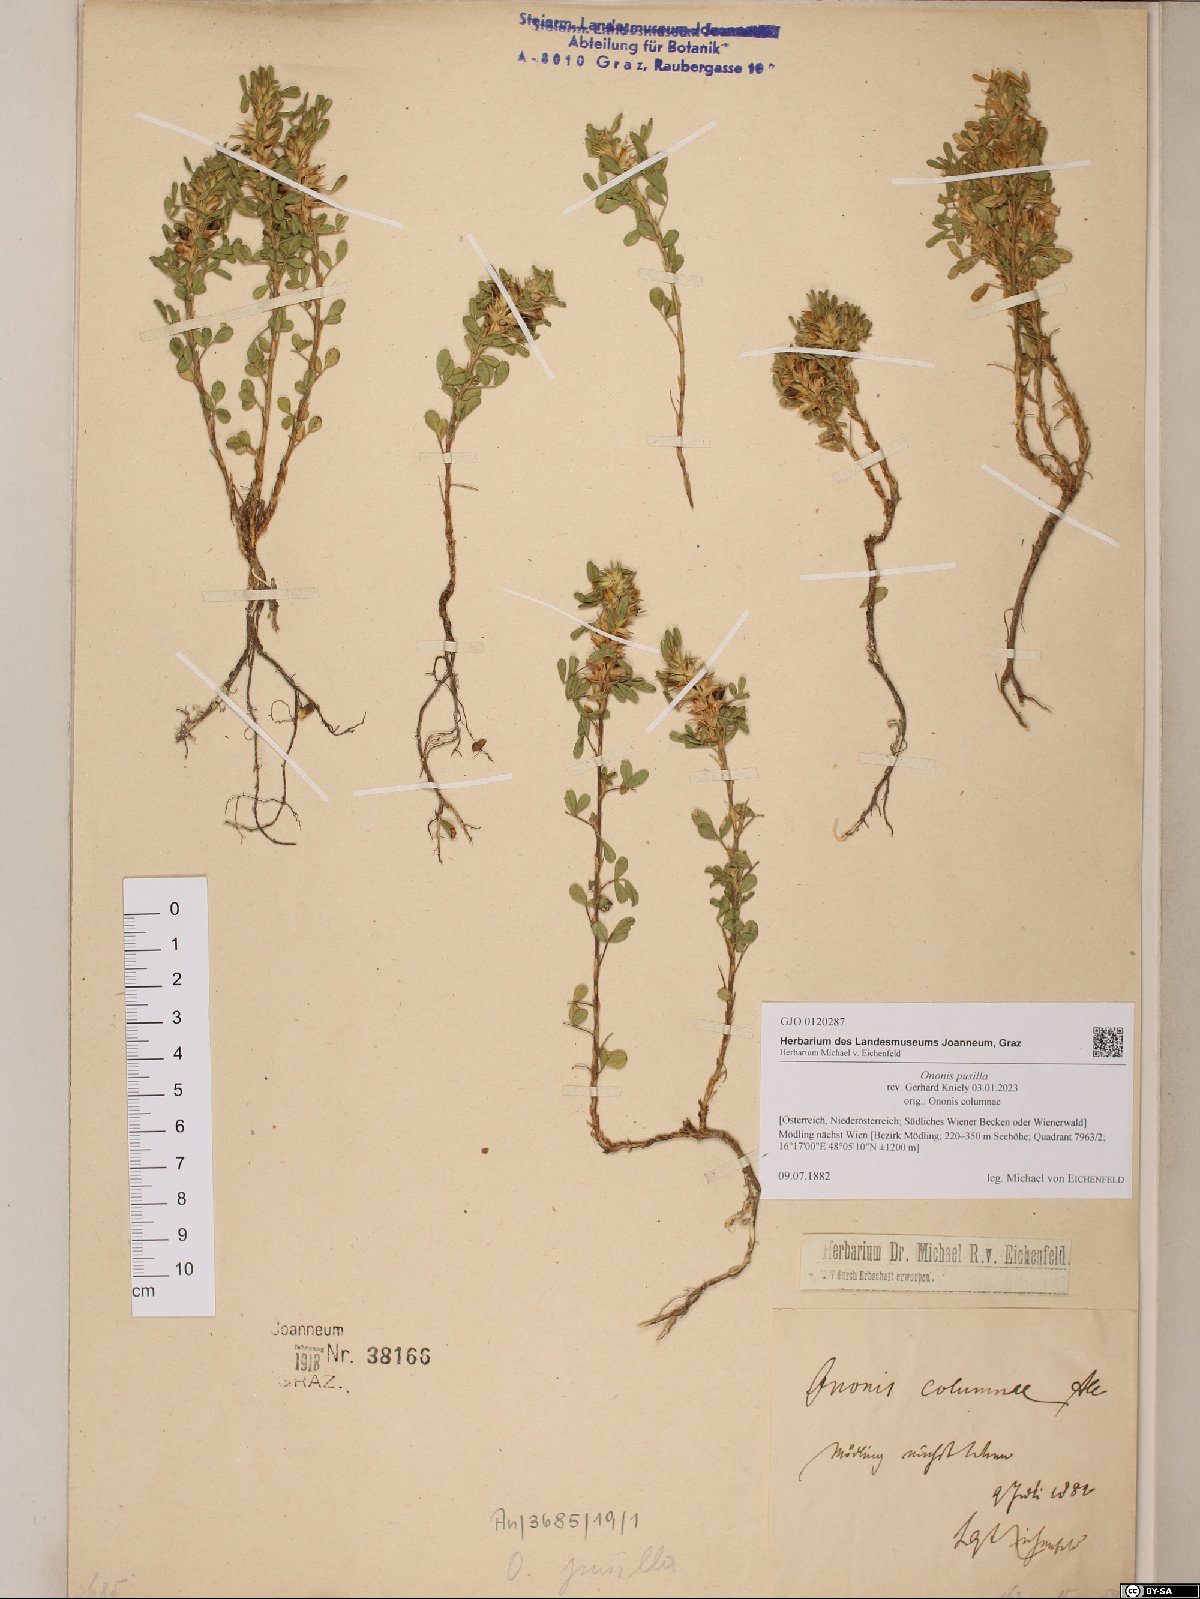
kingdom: Plantae
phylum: Tracheophyta
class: Magnoliopsida
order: Fabales
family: Fabaceae
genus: Ononis
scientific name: Ononis pusilla
